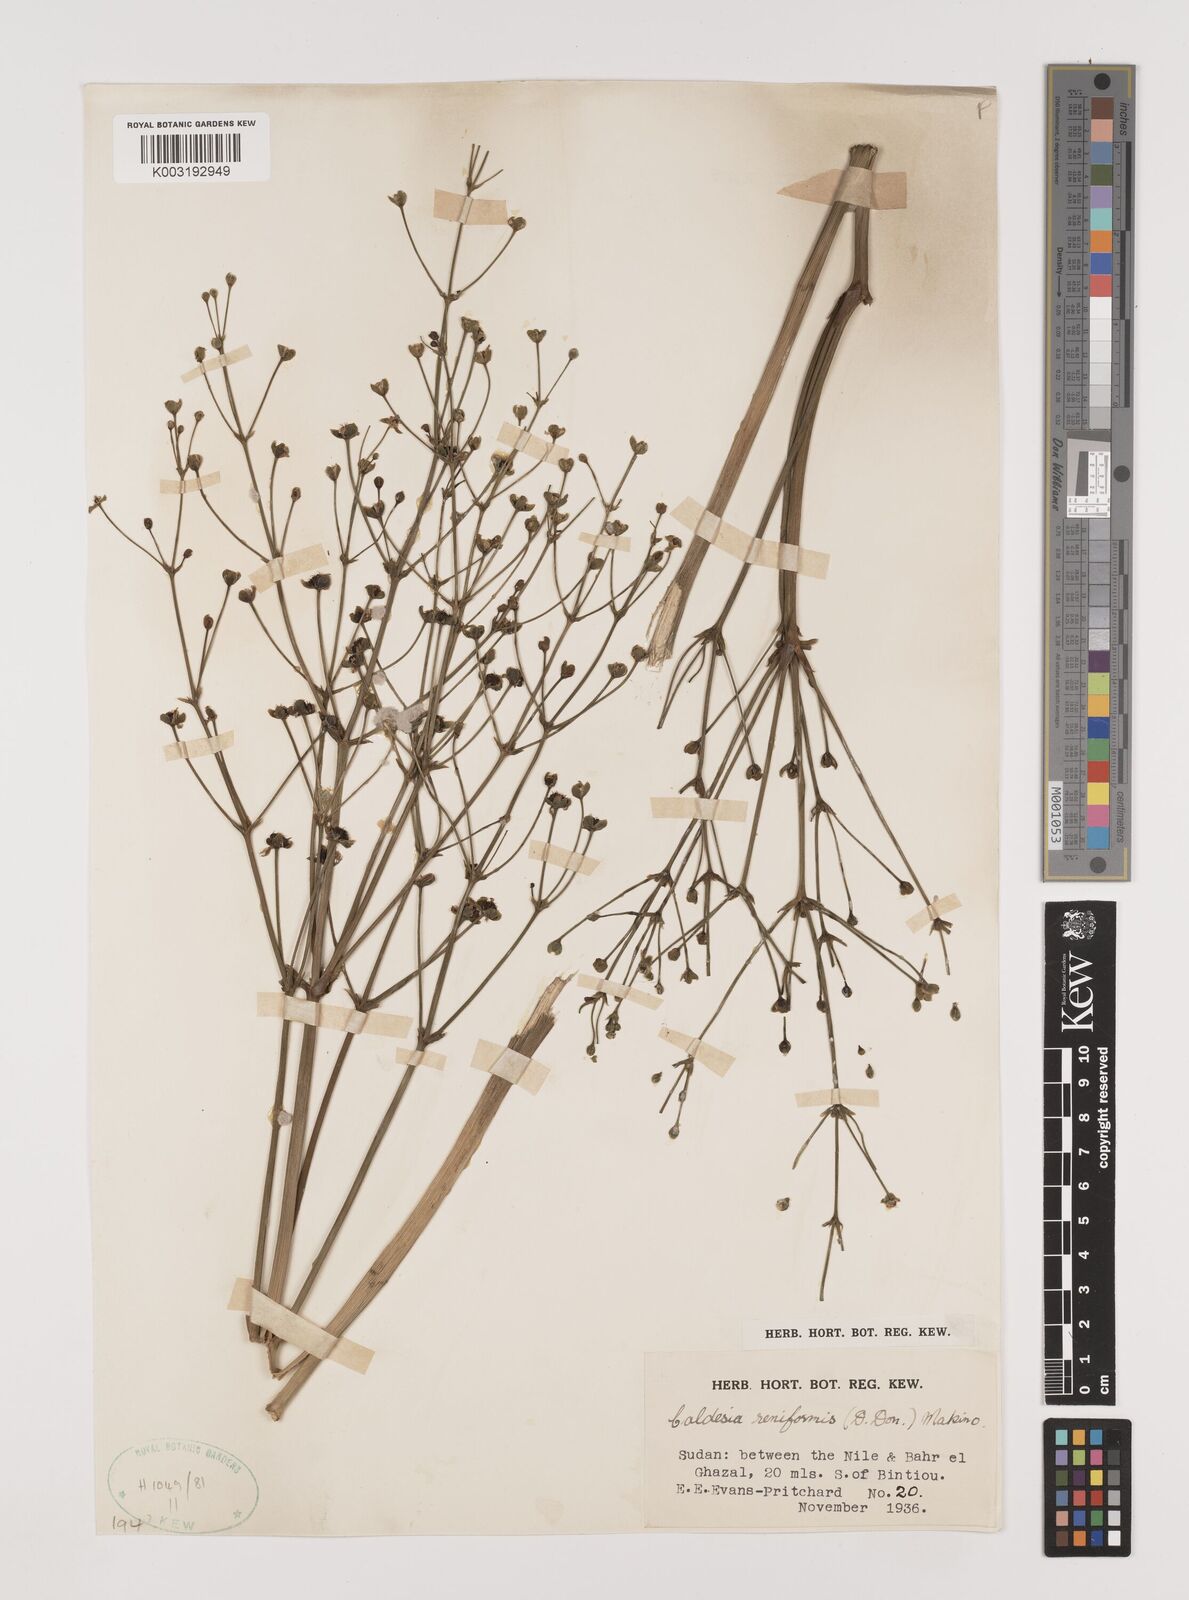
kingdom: Plantae
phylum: Tracheophyta
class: Liliopsida
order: Alismatales
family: Alismataceae
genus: Caldesia
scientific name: Caldesia parnassifolia
